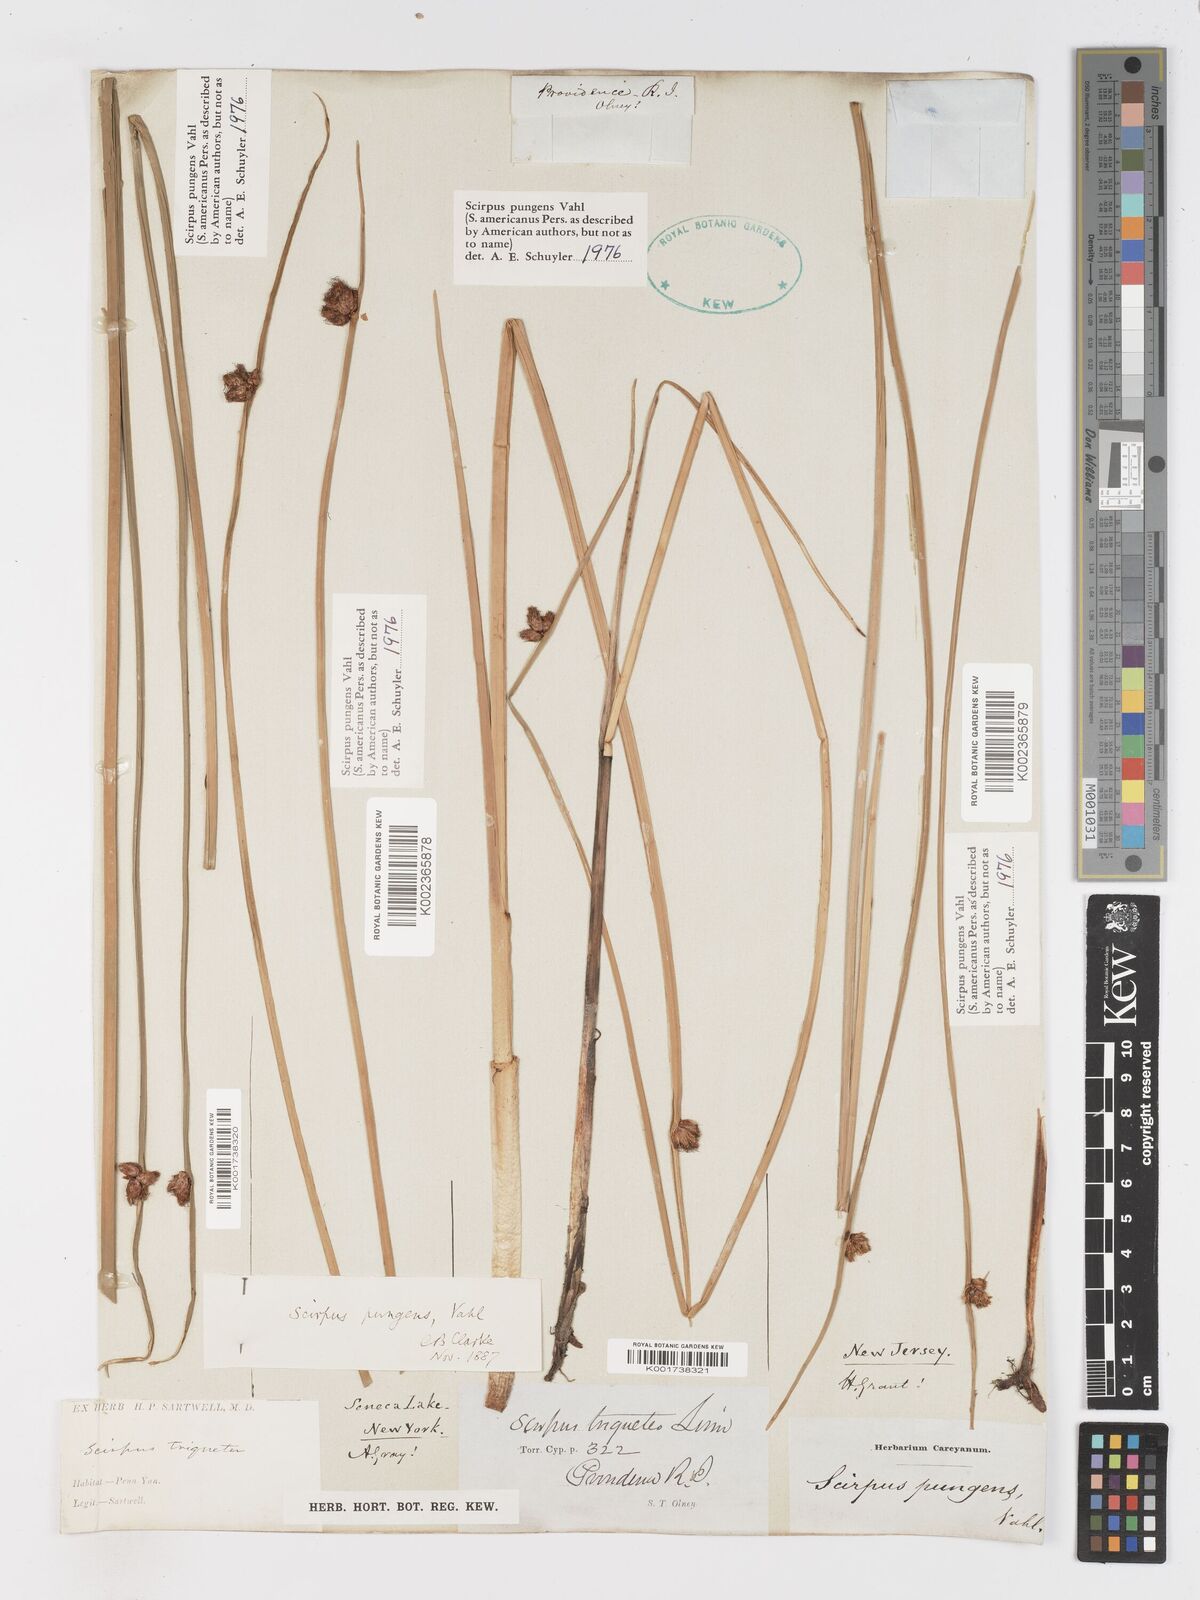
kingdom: Plantae
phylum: Tracheophyta
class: Liliopsida
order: Poales
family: Cyperaceae
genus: Schoenoplectus
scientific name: Schoenoplectus pungens
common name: Sharp club-rush
